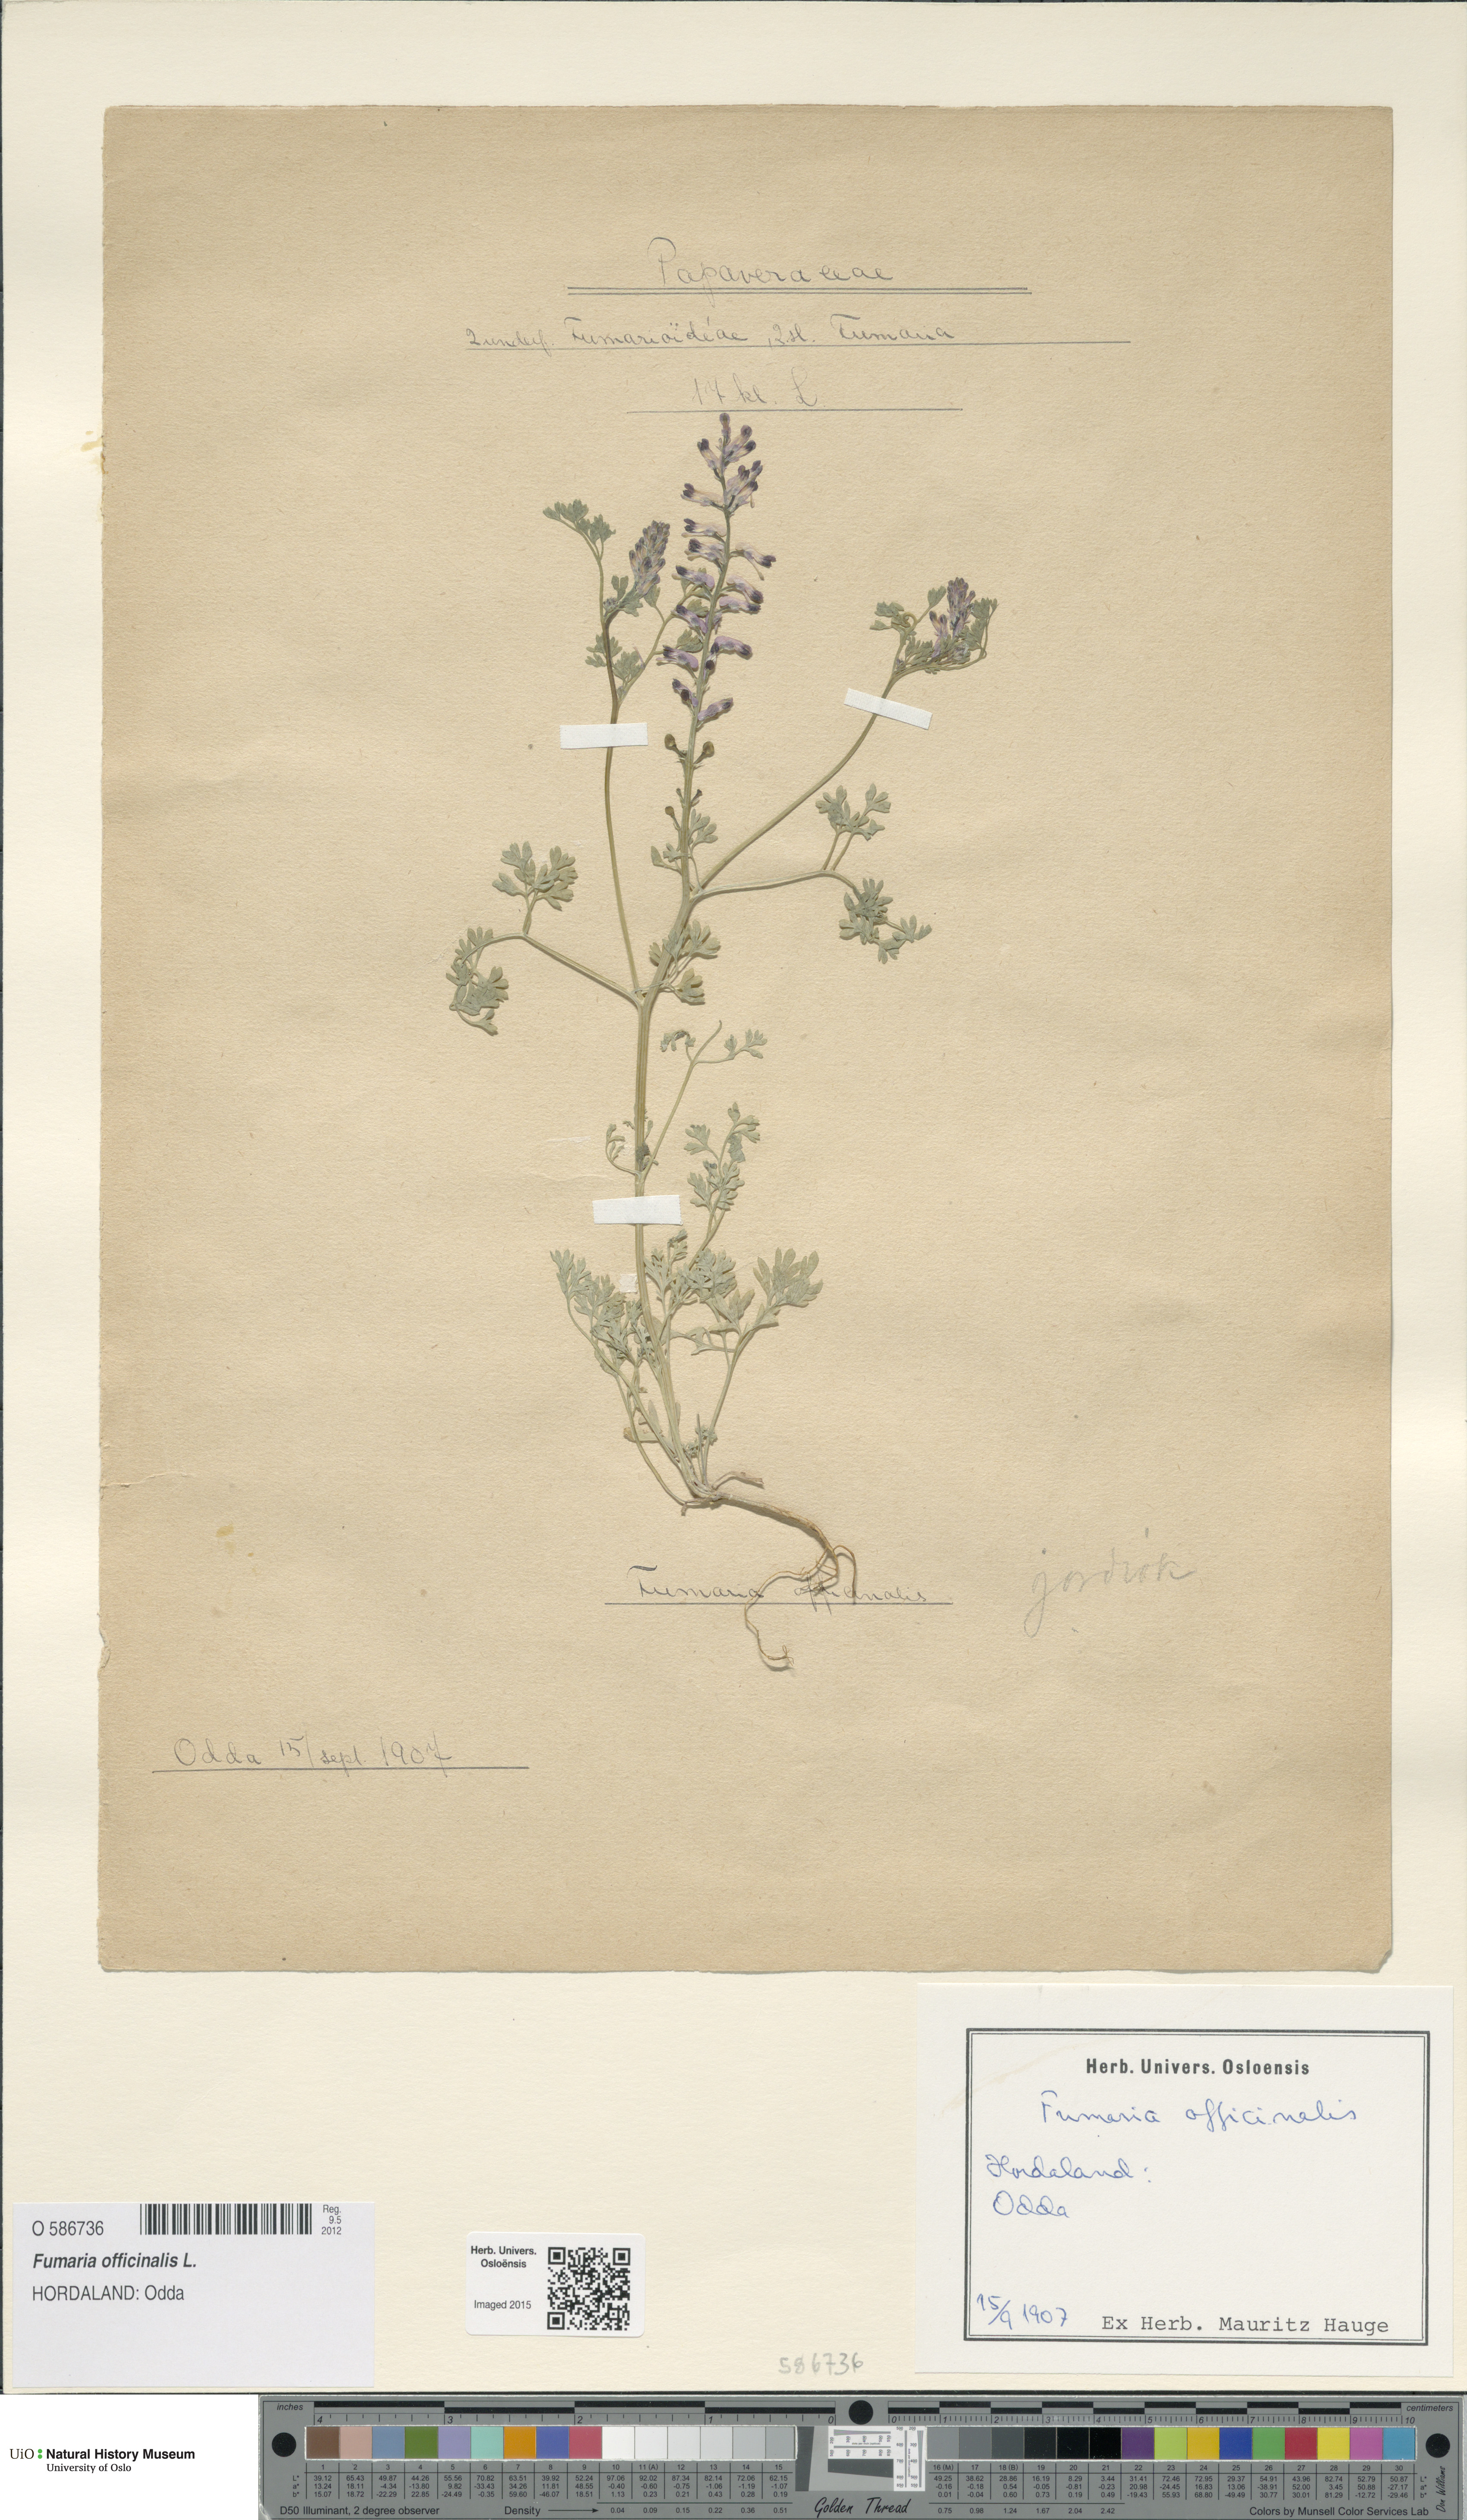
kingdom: Plantae
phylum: Tracheophyta
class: Magnoliopsida
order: Ranunculales
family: Papaveraceae
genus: Fumaria
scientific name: Fumaria officinalis
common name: Common fumitory
